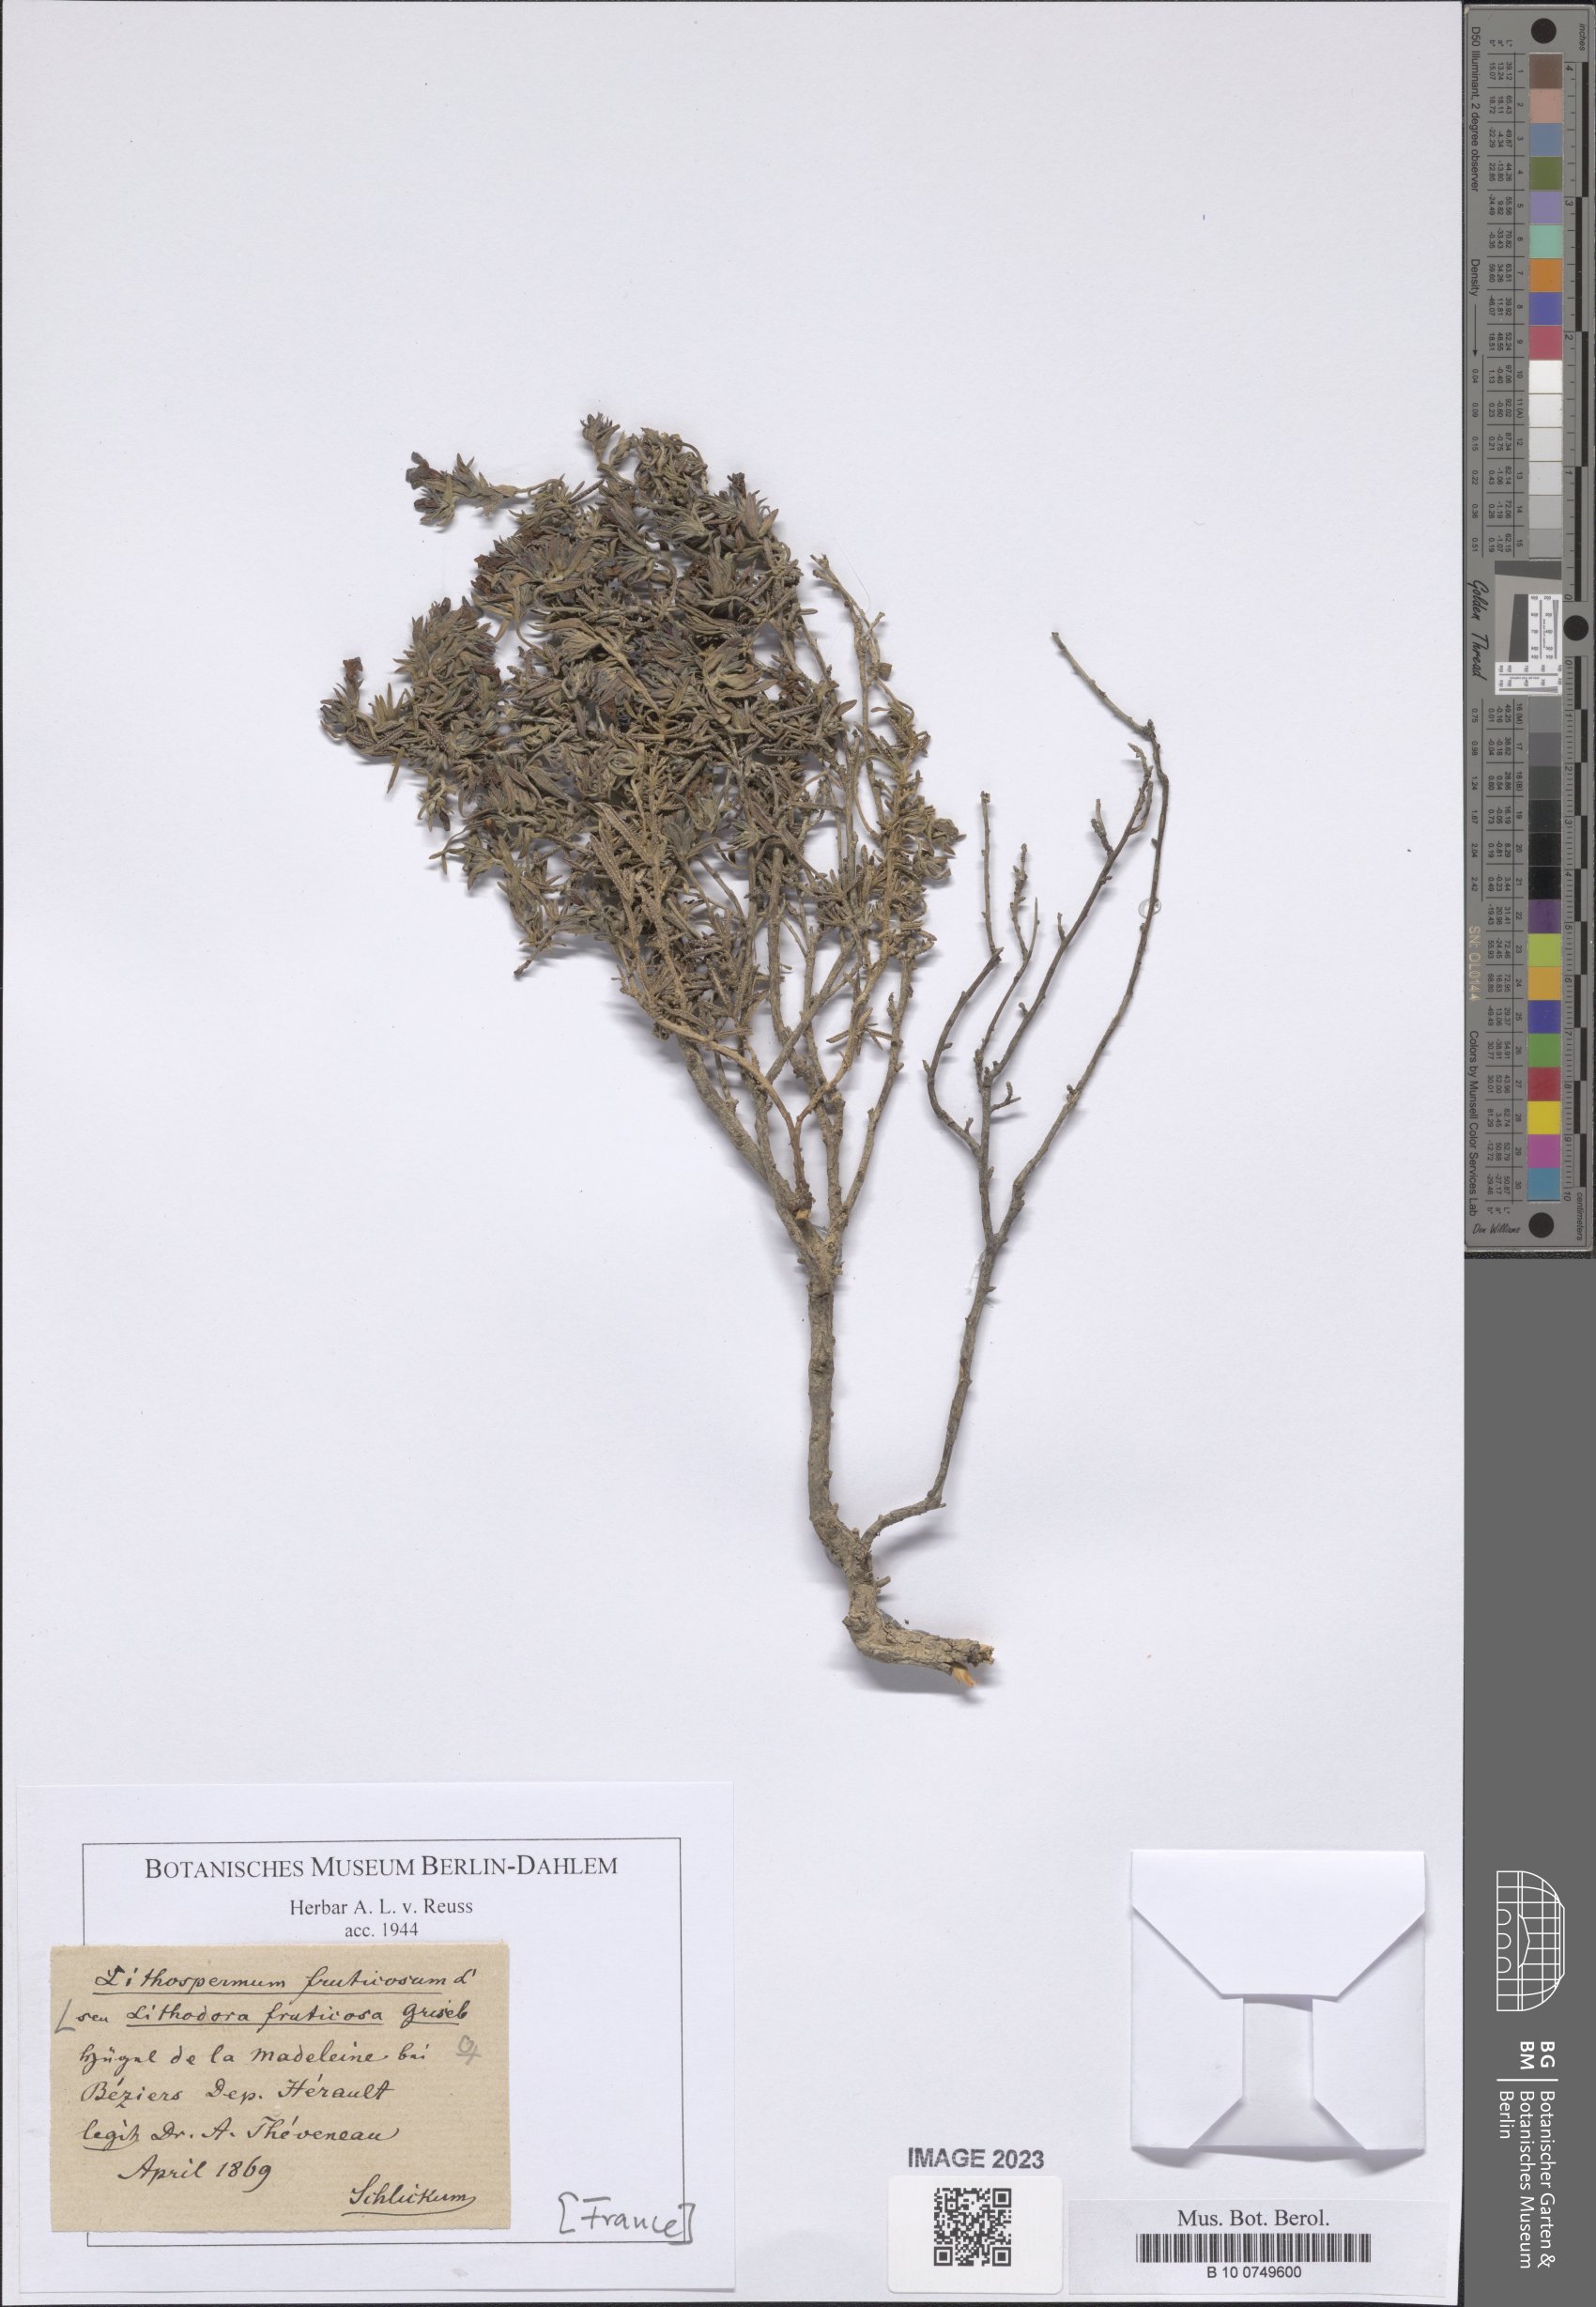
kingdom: Plantae
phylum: Tracheophyta
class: Magnoliopsida
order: Boraginales
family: Boraginaceae
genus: Lithodora
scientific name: Lithodora fruticosa
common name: Shrubby gromwell
